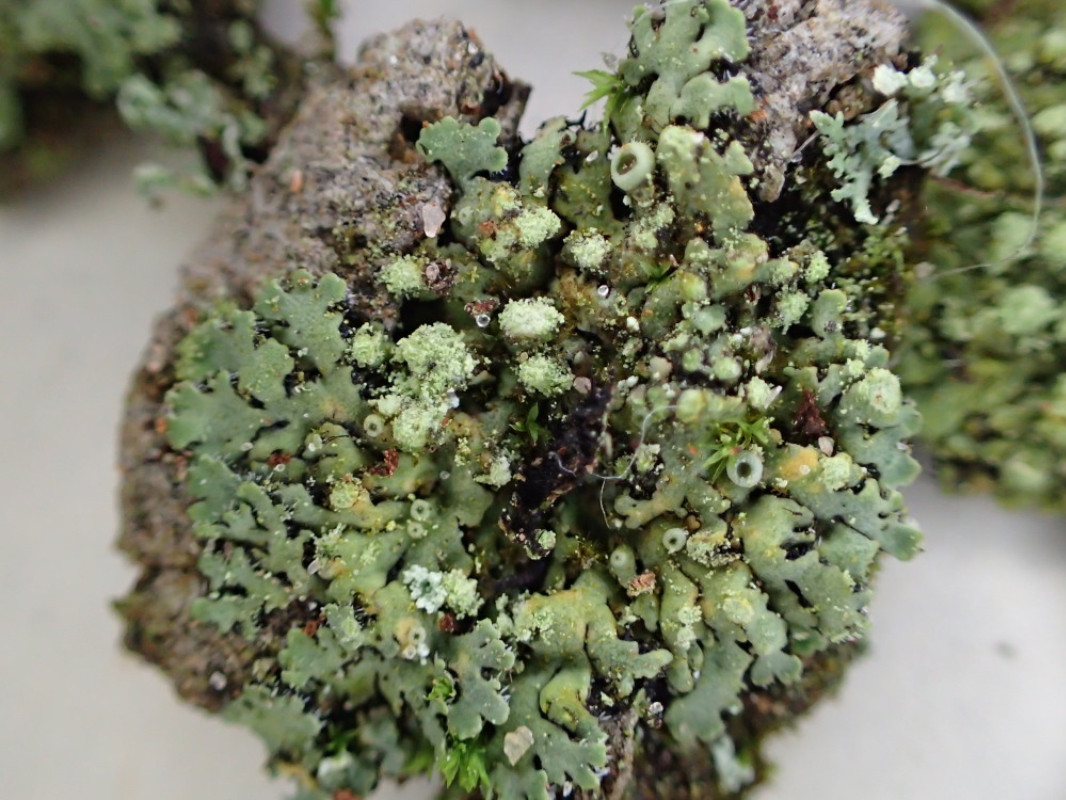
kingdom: Fungi
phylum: Ascomycota
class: Lecanoromycetes
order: Caliciales
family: Physciaceae
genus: Phaeophyscia
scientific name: Phaeophyscia orbicularis
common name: grågrøn rosetlav
